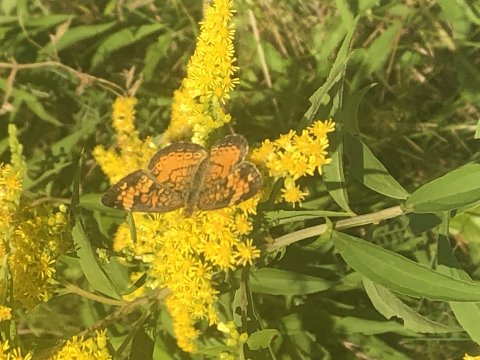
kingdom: Animalia
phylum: Arthropoda
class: Insecta
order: Lepidoptera
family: Nymphalidae
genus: Phyciodes
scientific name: Phyciodes
